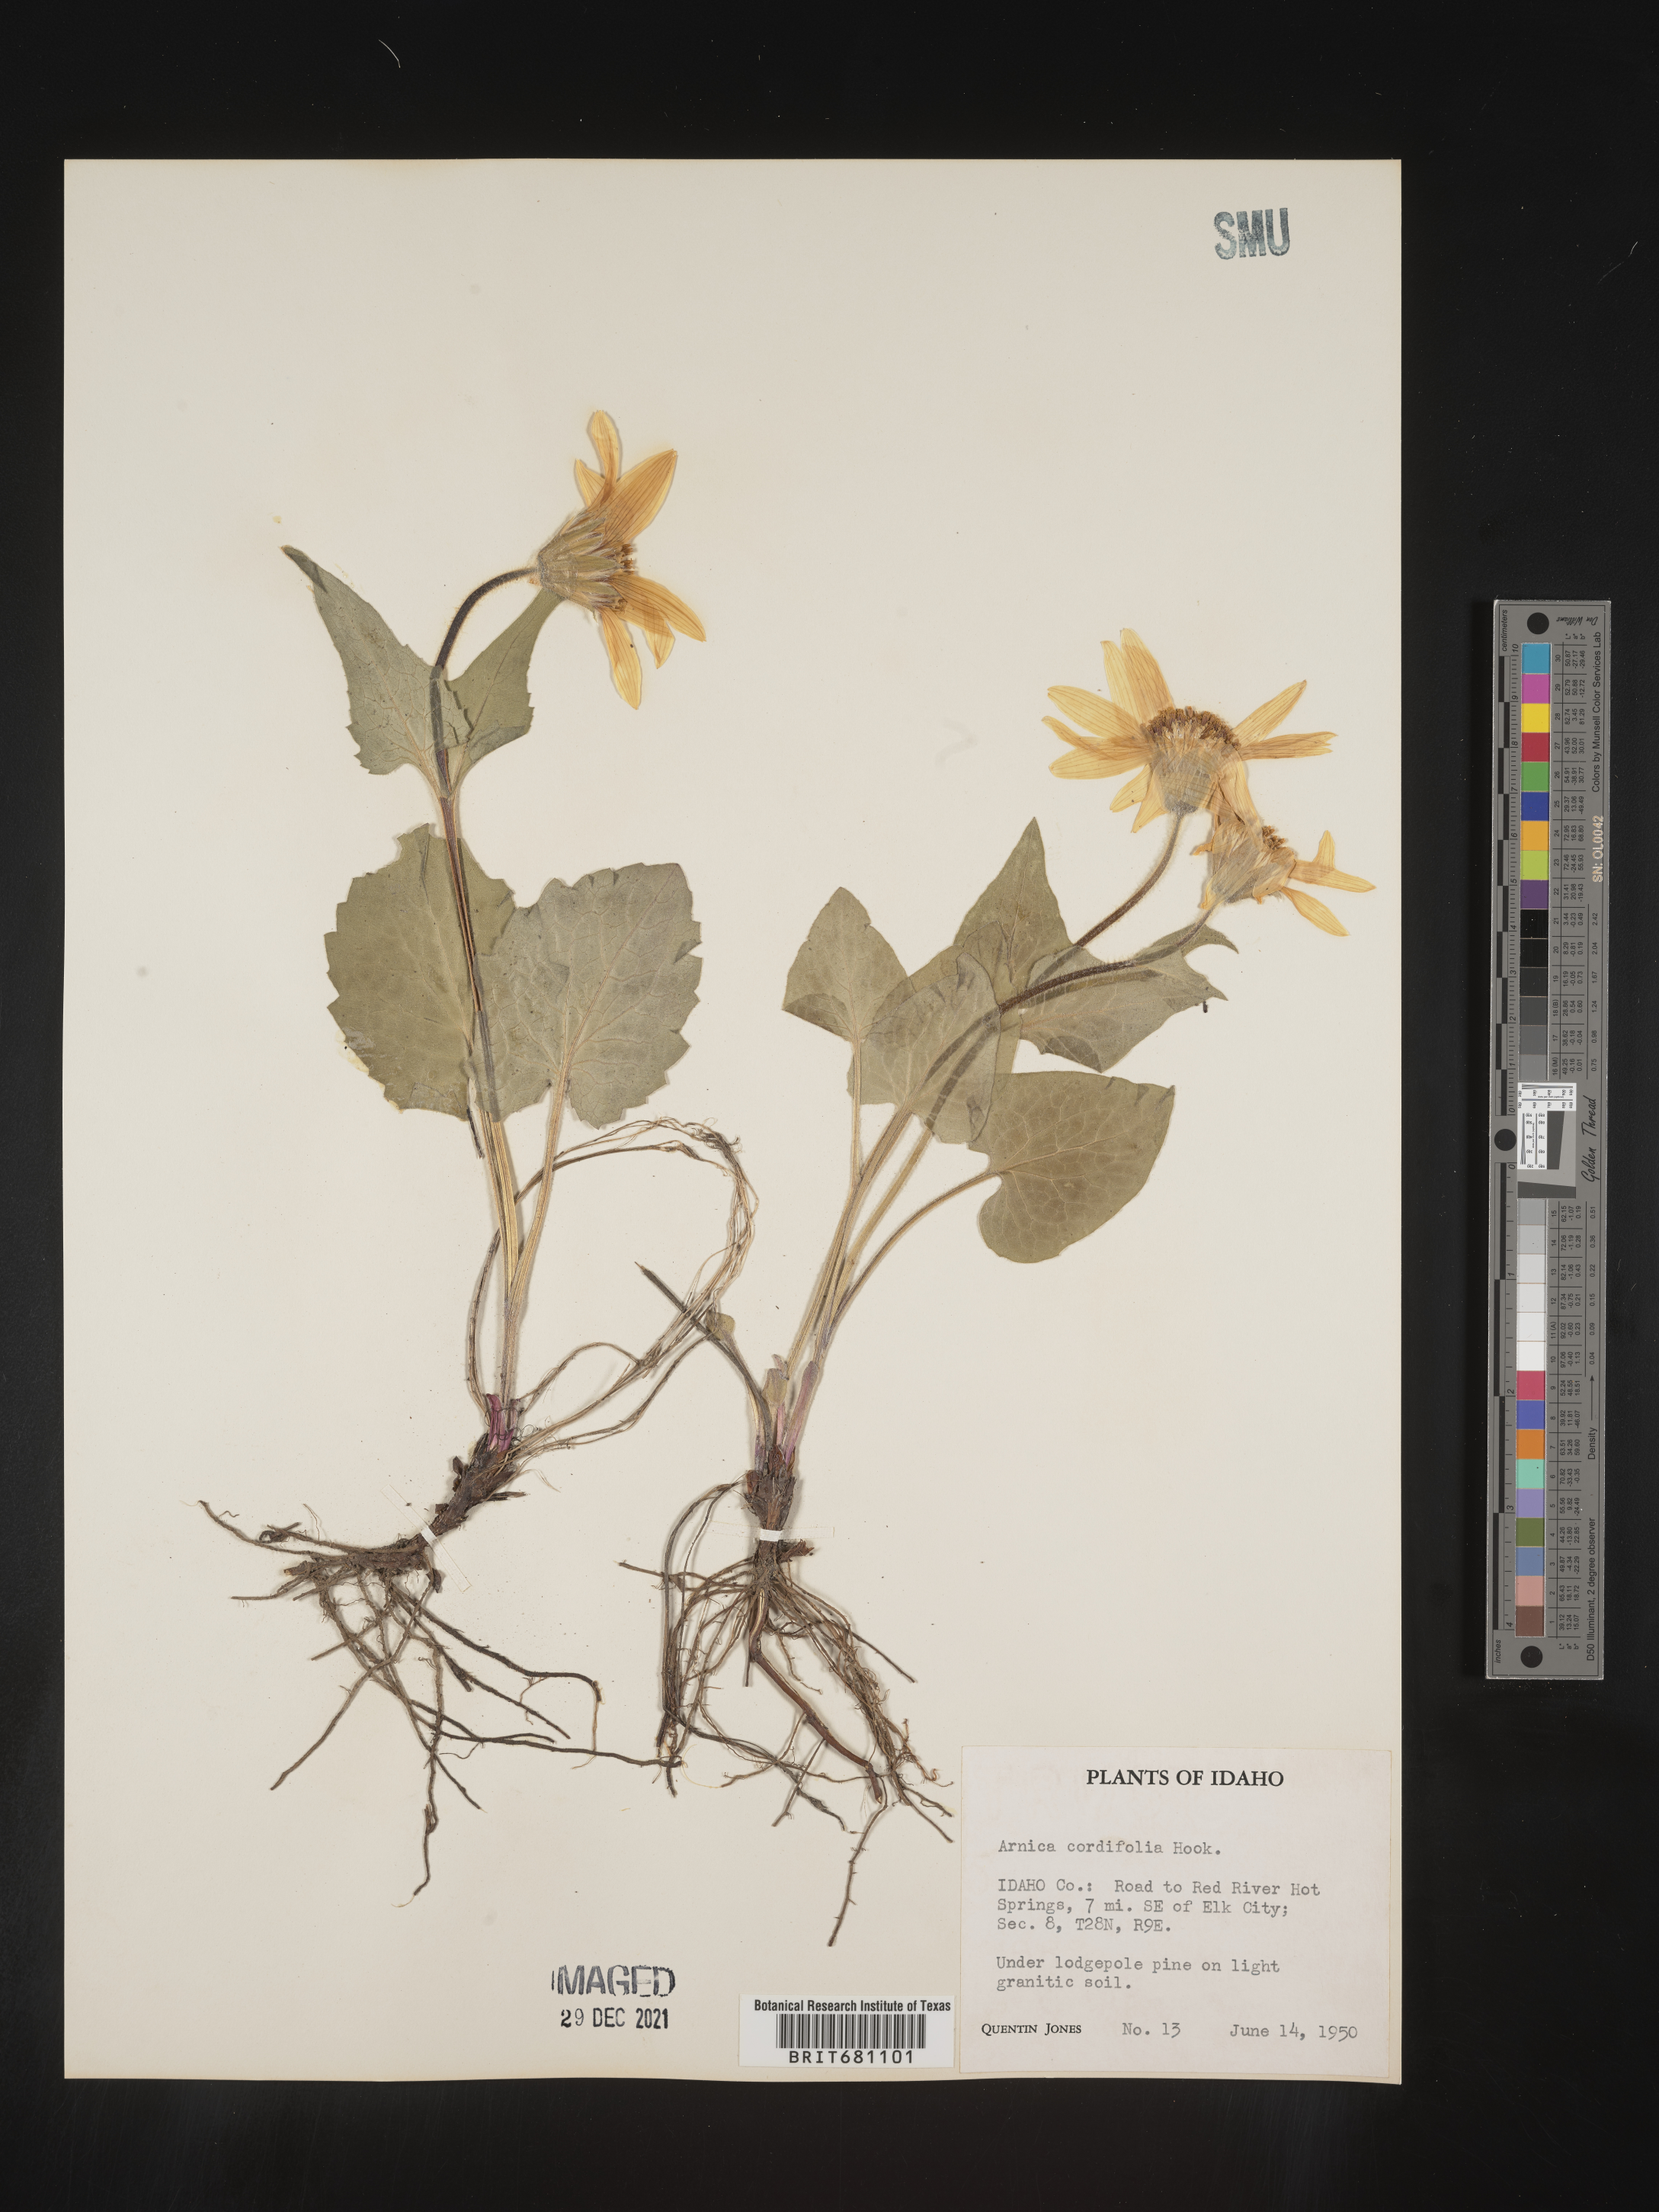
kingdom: Plantae
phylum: Tracheophyta
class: Magnoliopsida
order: Asterales
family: Asteraceae
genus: Arnica
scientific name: Arnica cordifolia
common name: Heart-leaf arnica
